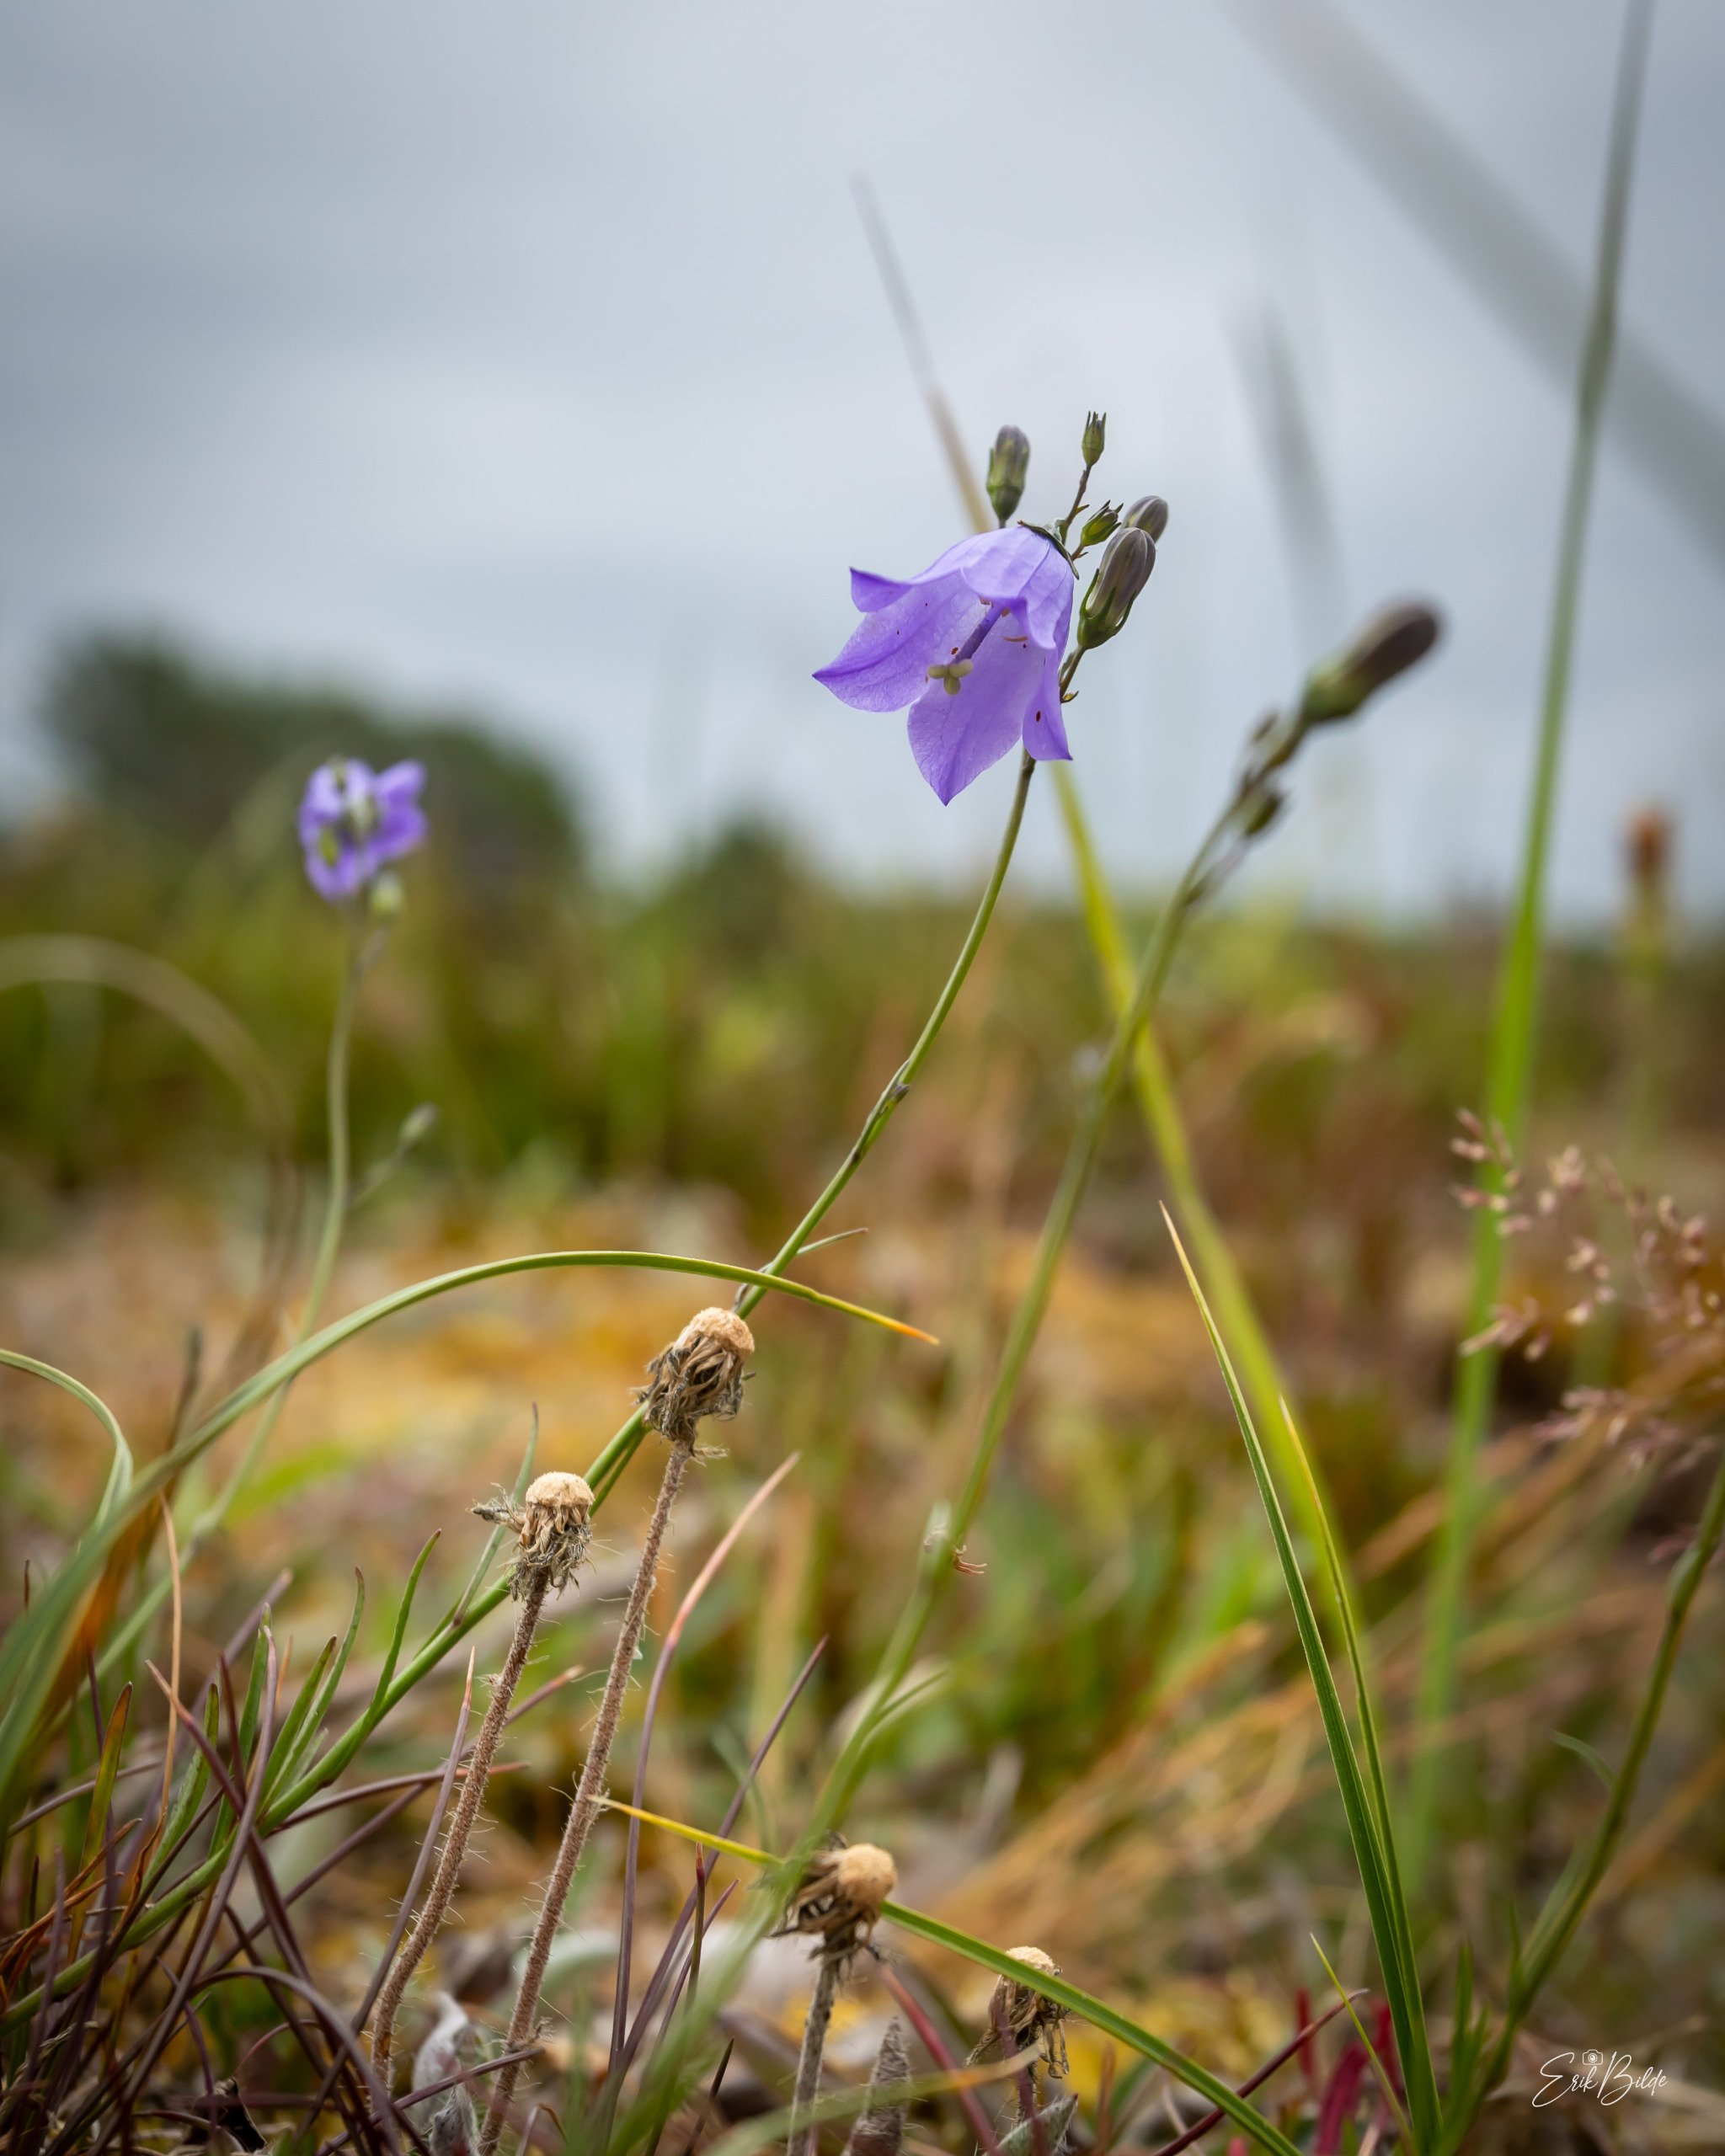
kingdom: Plantae
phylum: Tracheophyta
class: Magnoliopsida
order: Asterales
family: Campanulaceae
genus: Campanula
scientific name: Campanula rotundifolia
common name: Liden klokke
